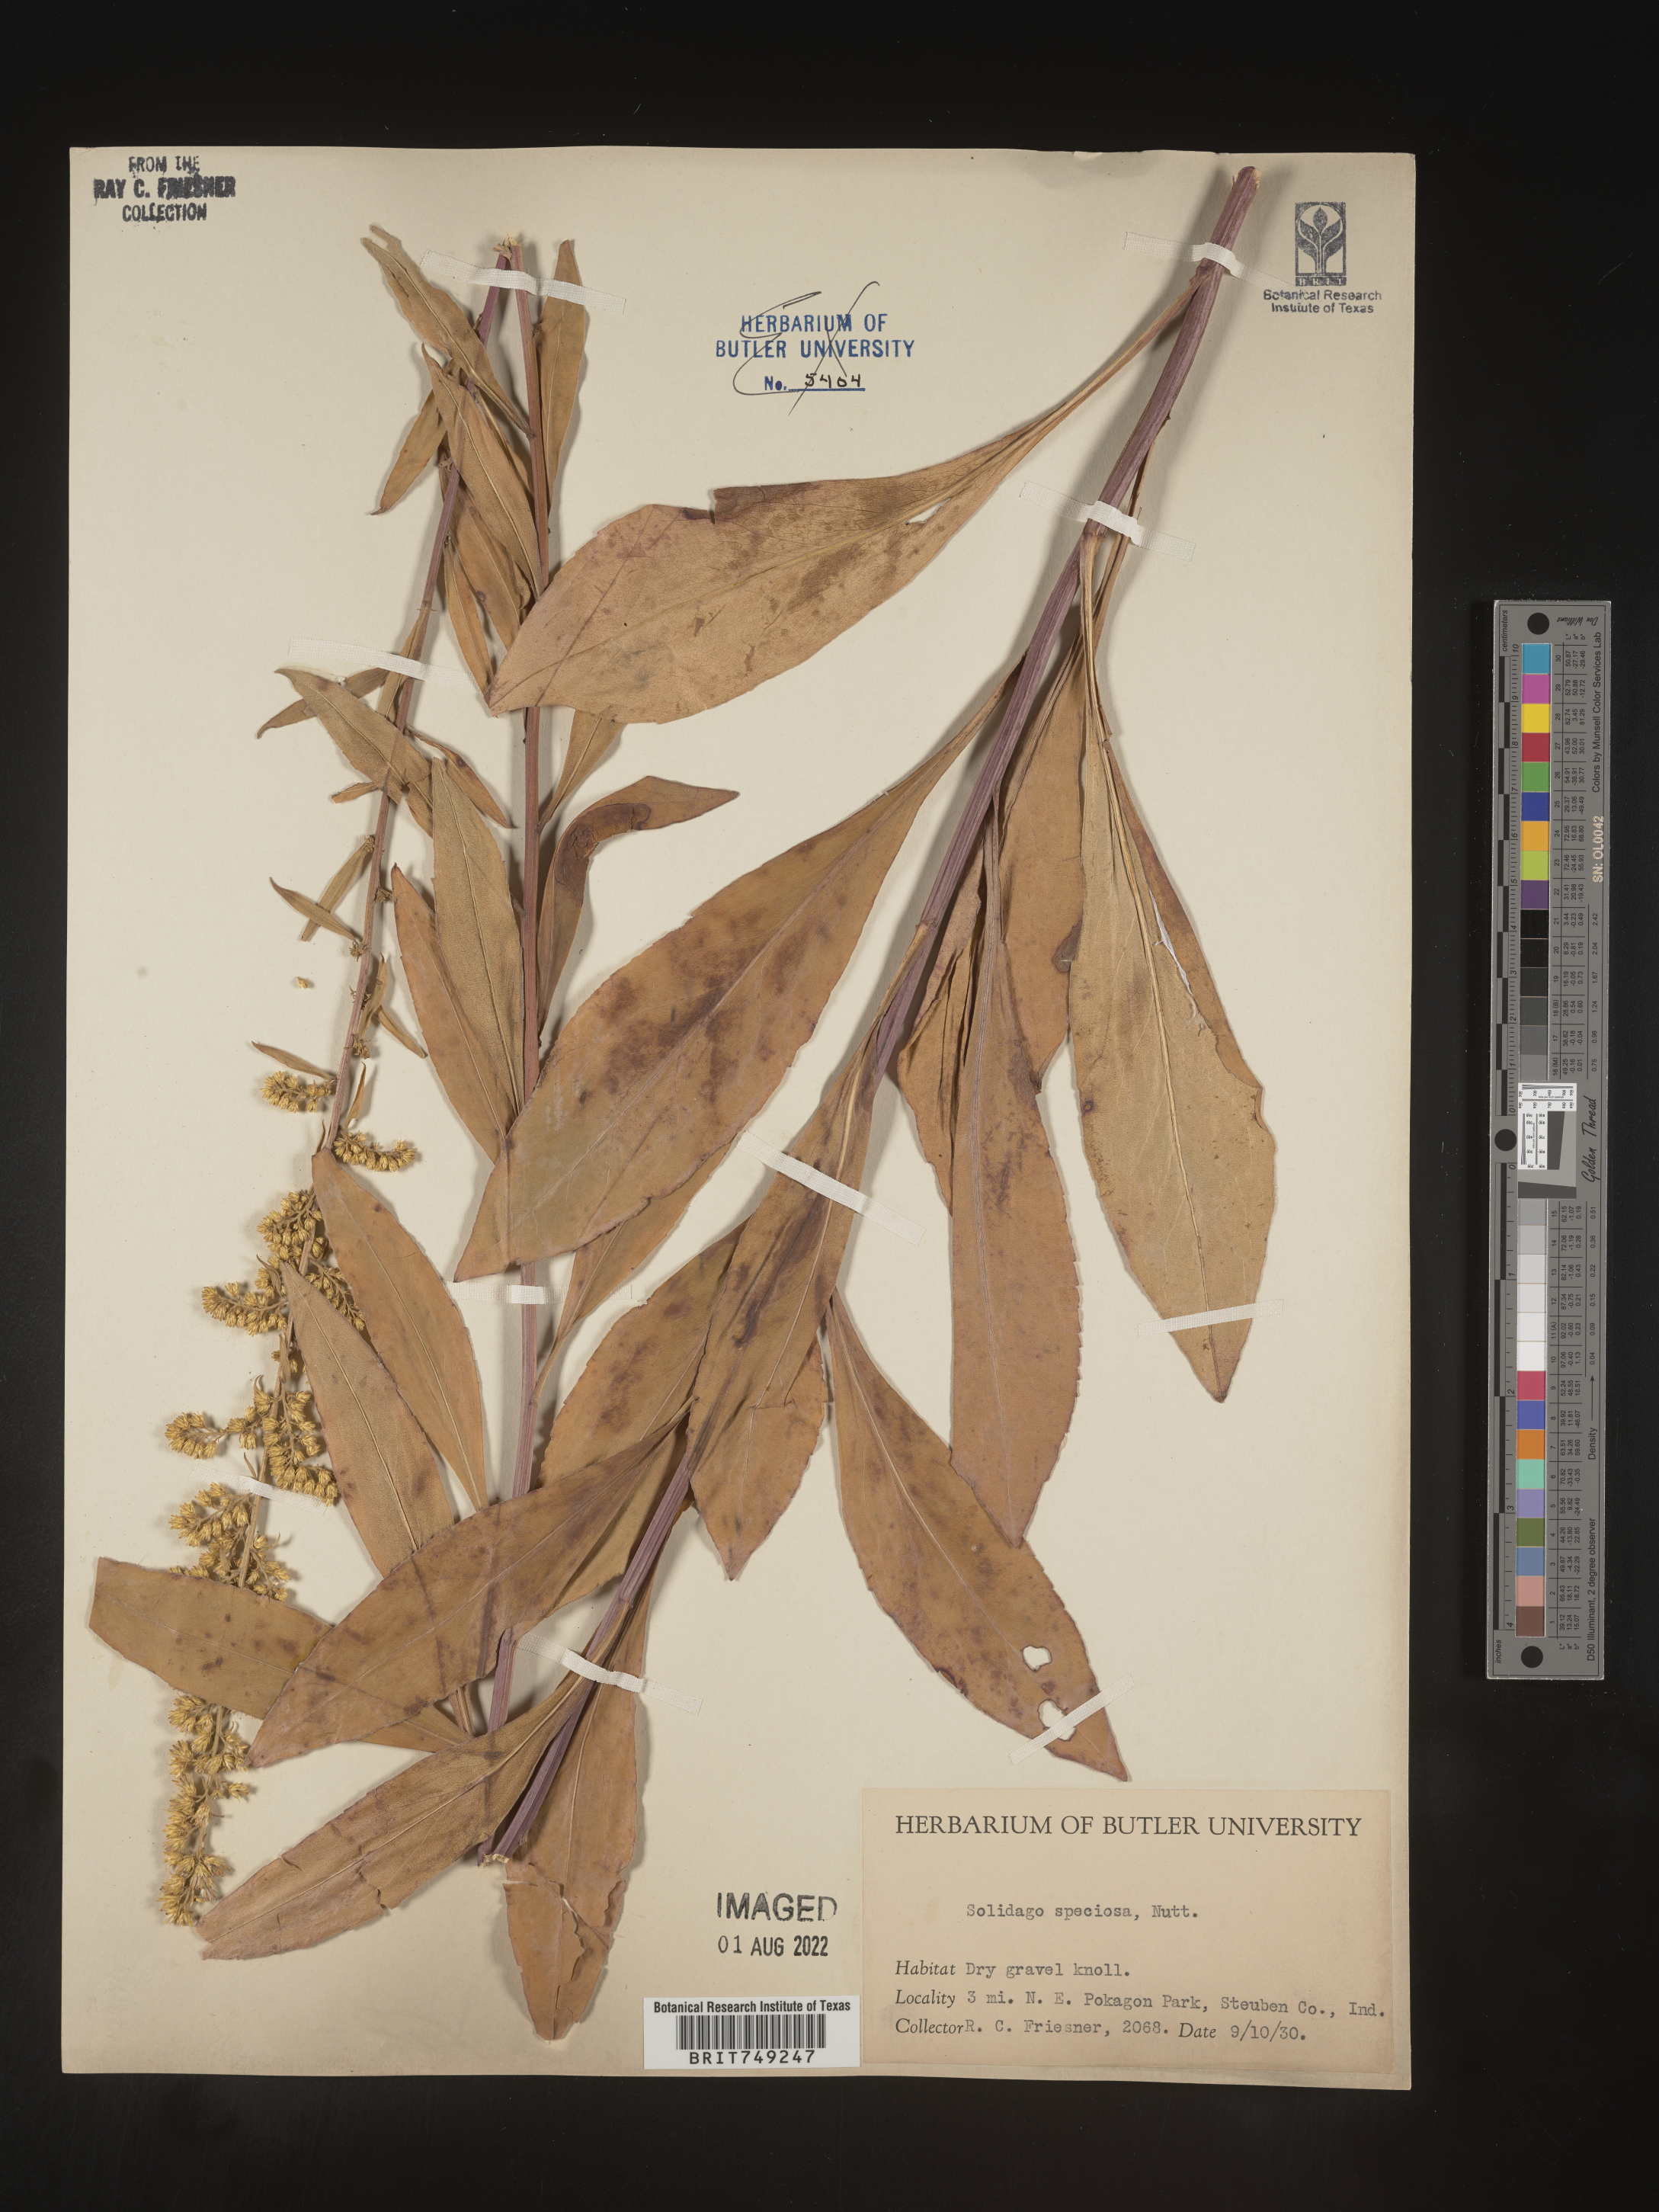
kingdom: Plantae
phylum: Tracheophyta
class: Magnoliopsida
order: Asterales
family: Asteraceae
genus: Solidago
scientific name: Solidago speciosa
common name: Showy goldenrod
